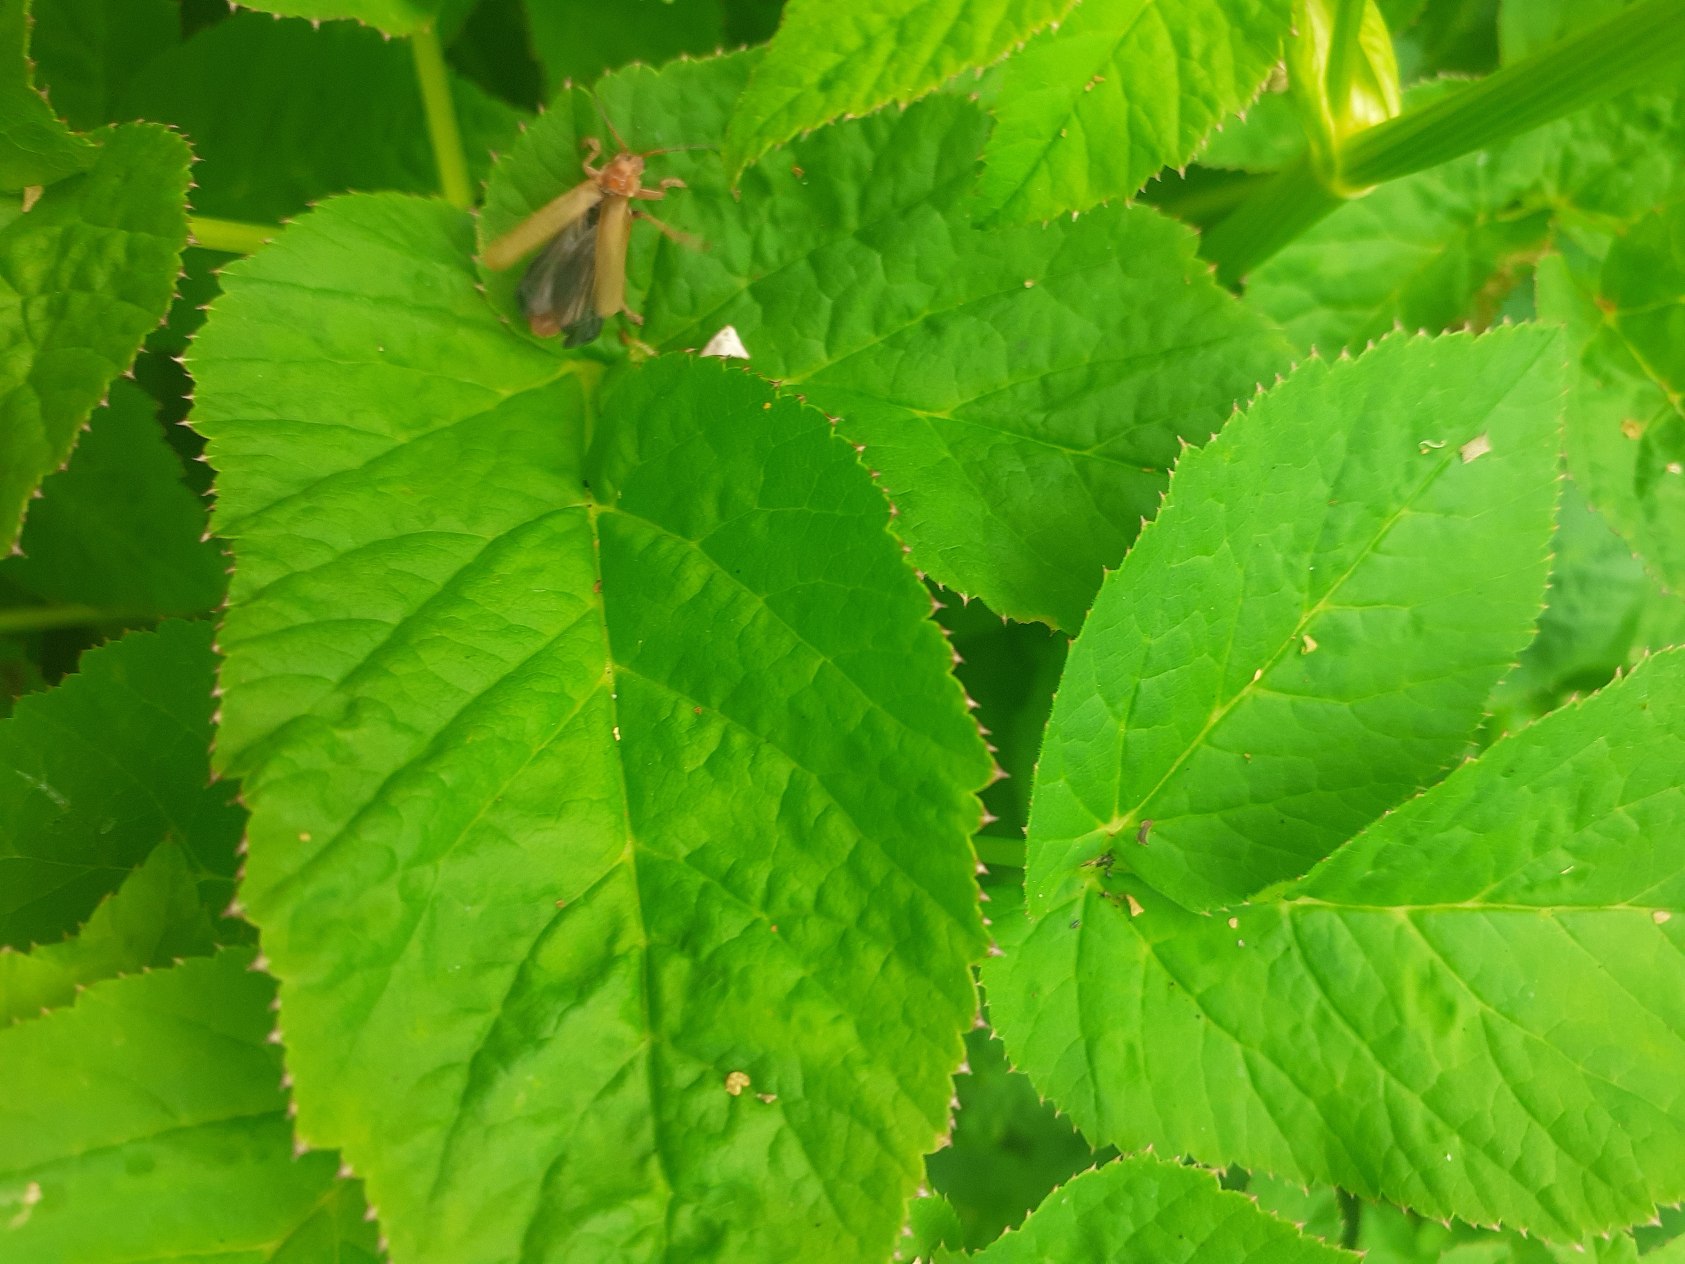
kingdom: Animalia
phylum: Arthropoda
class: Insecta
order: Coleoptera
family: Cantharidae
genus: Cantharis
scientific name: Cantharis livida
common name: Gul blødvinge
